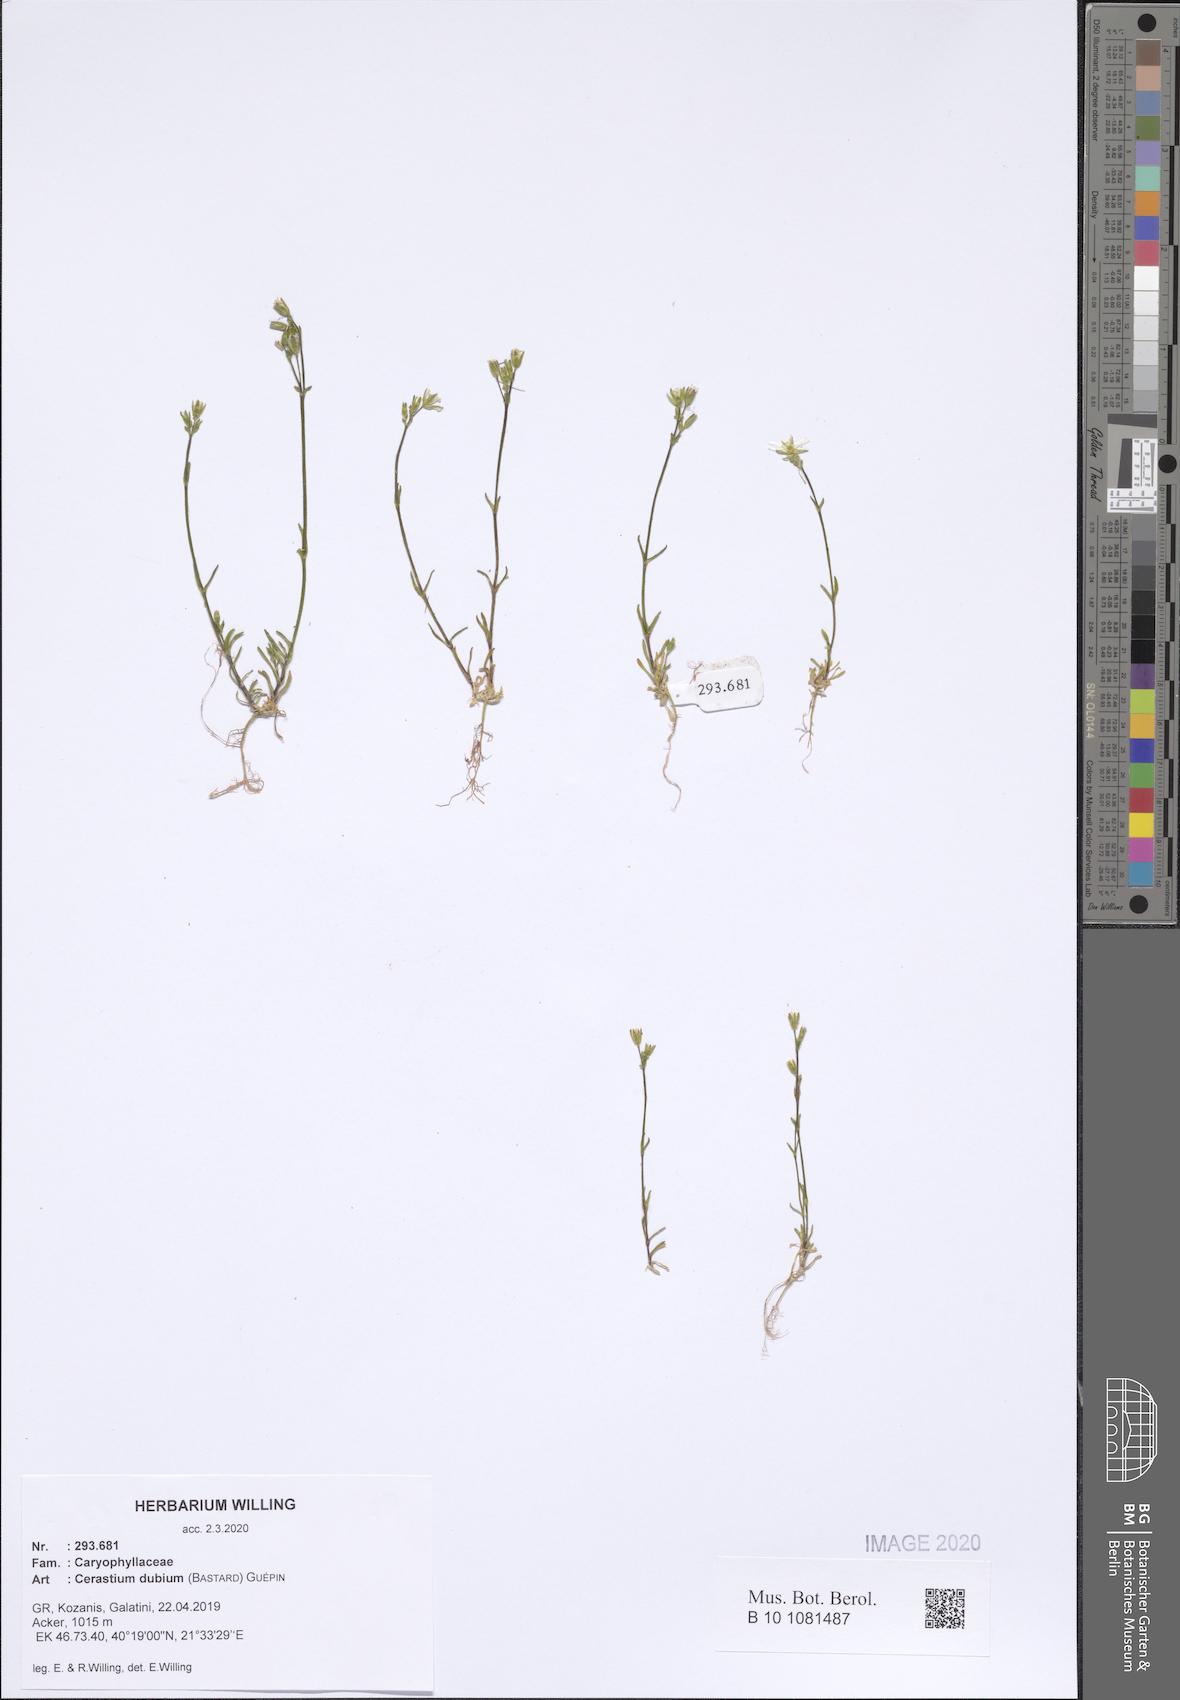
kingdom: Plantae
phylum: Tracheophyta
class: Magnoliopsida
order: Caryophyllales
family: Caryophyllaceae
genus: Dichodon
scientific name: Dichodon viscidum
